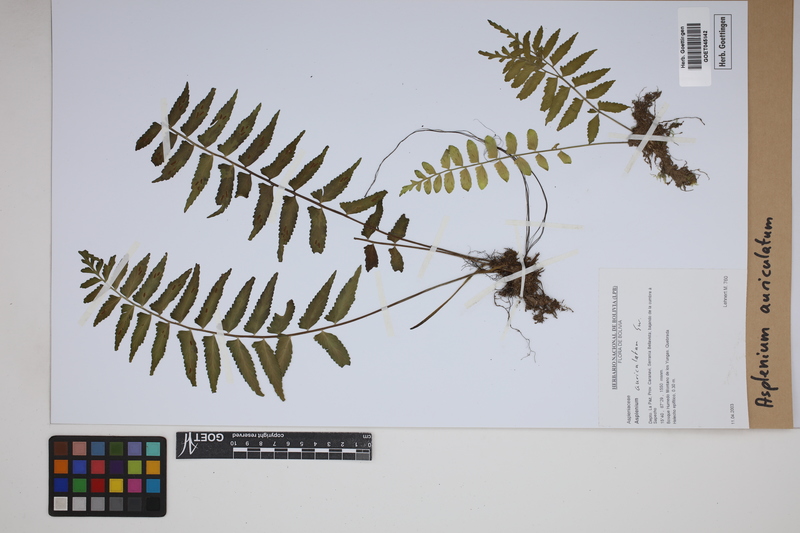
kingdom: Plantae
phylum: Tracheophyta
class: Polypodiopsida
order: Polypodiales
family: Aspleniaceae
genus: Asplenium
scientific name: Asplenium auriculatum
